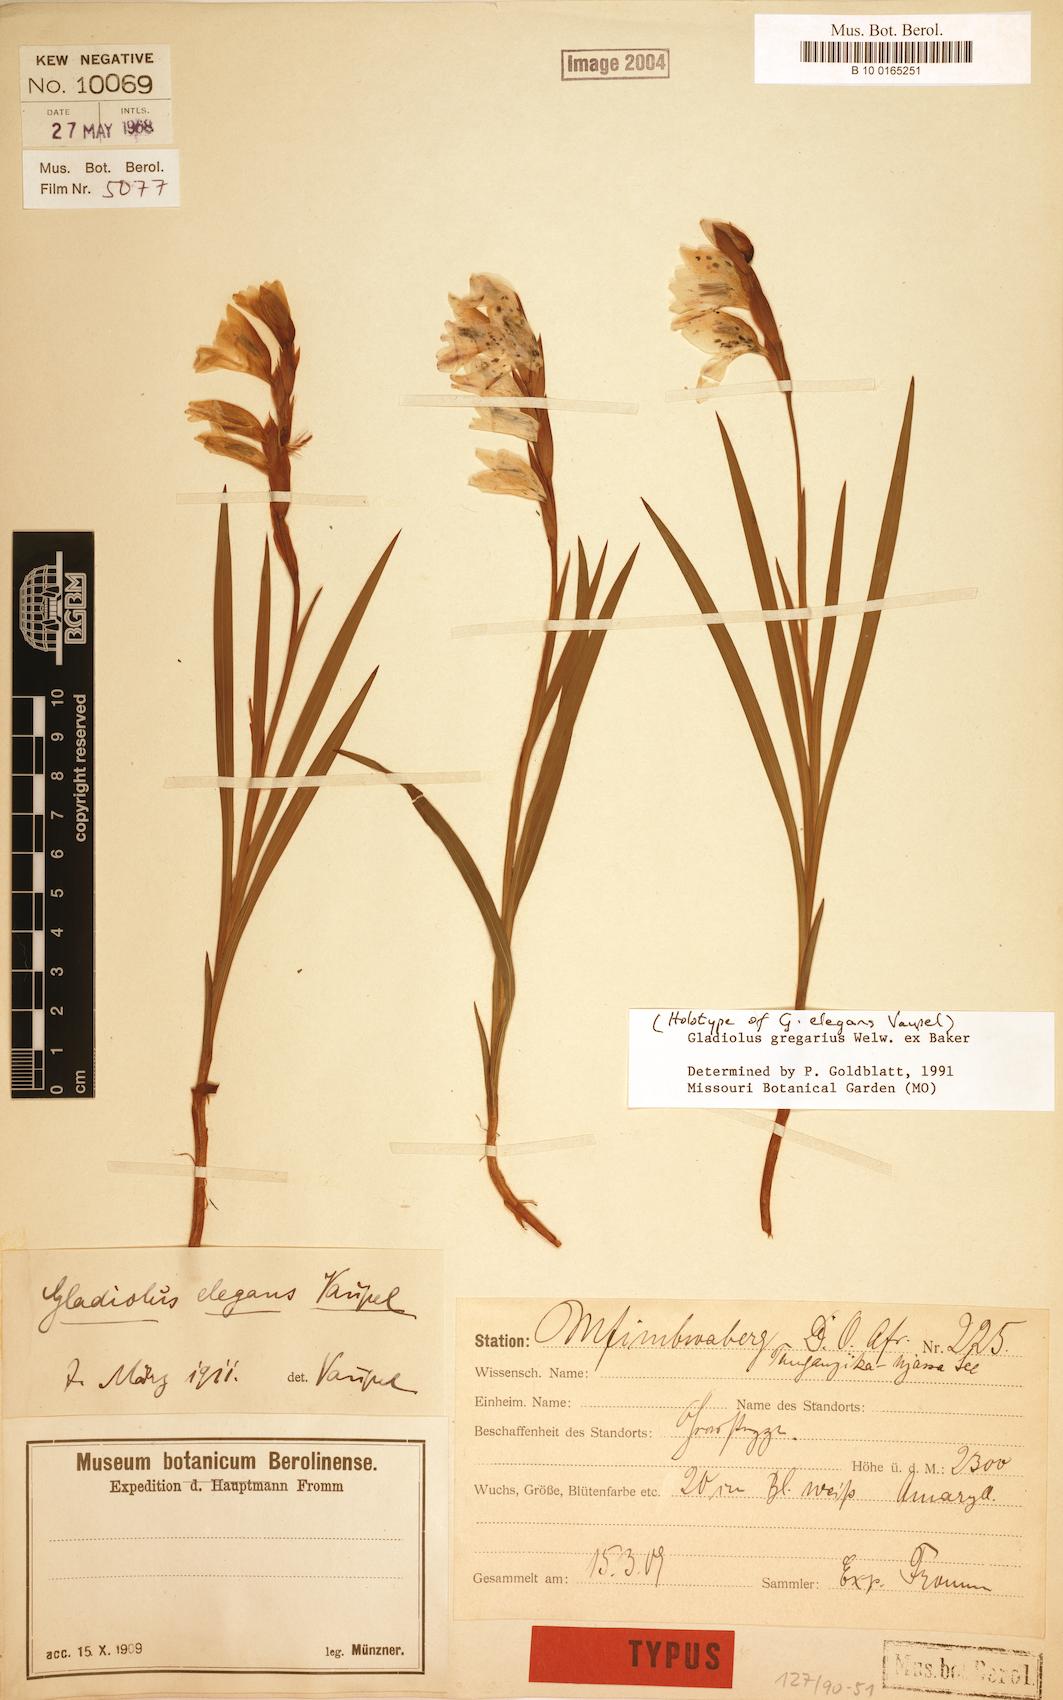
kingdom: Plantae
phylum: Tracheophyta
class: Liliopsida
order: Asparagales
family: Iridaceae
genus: Gladiolus
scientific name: Gladiolus gregarius
